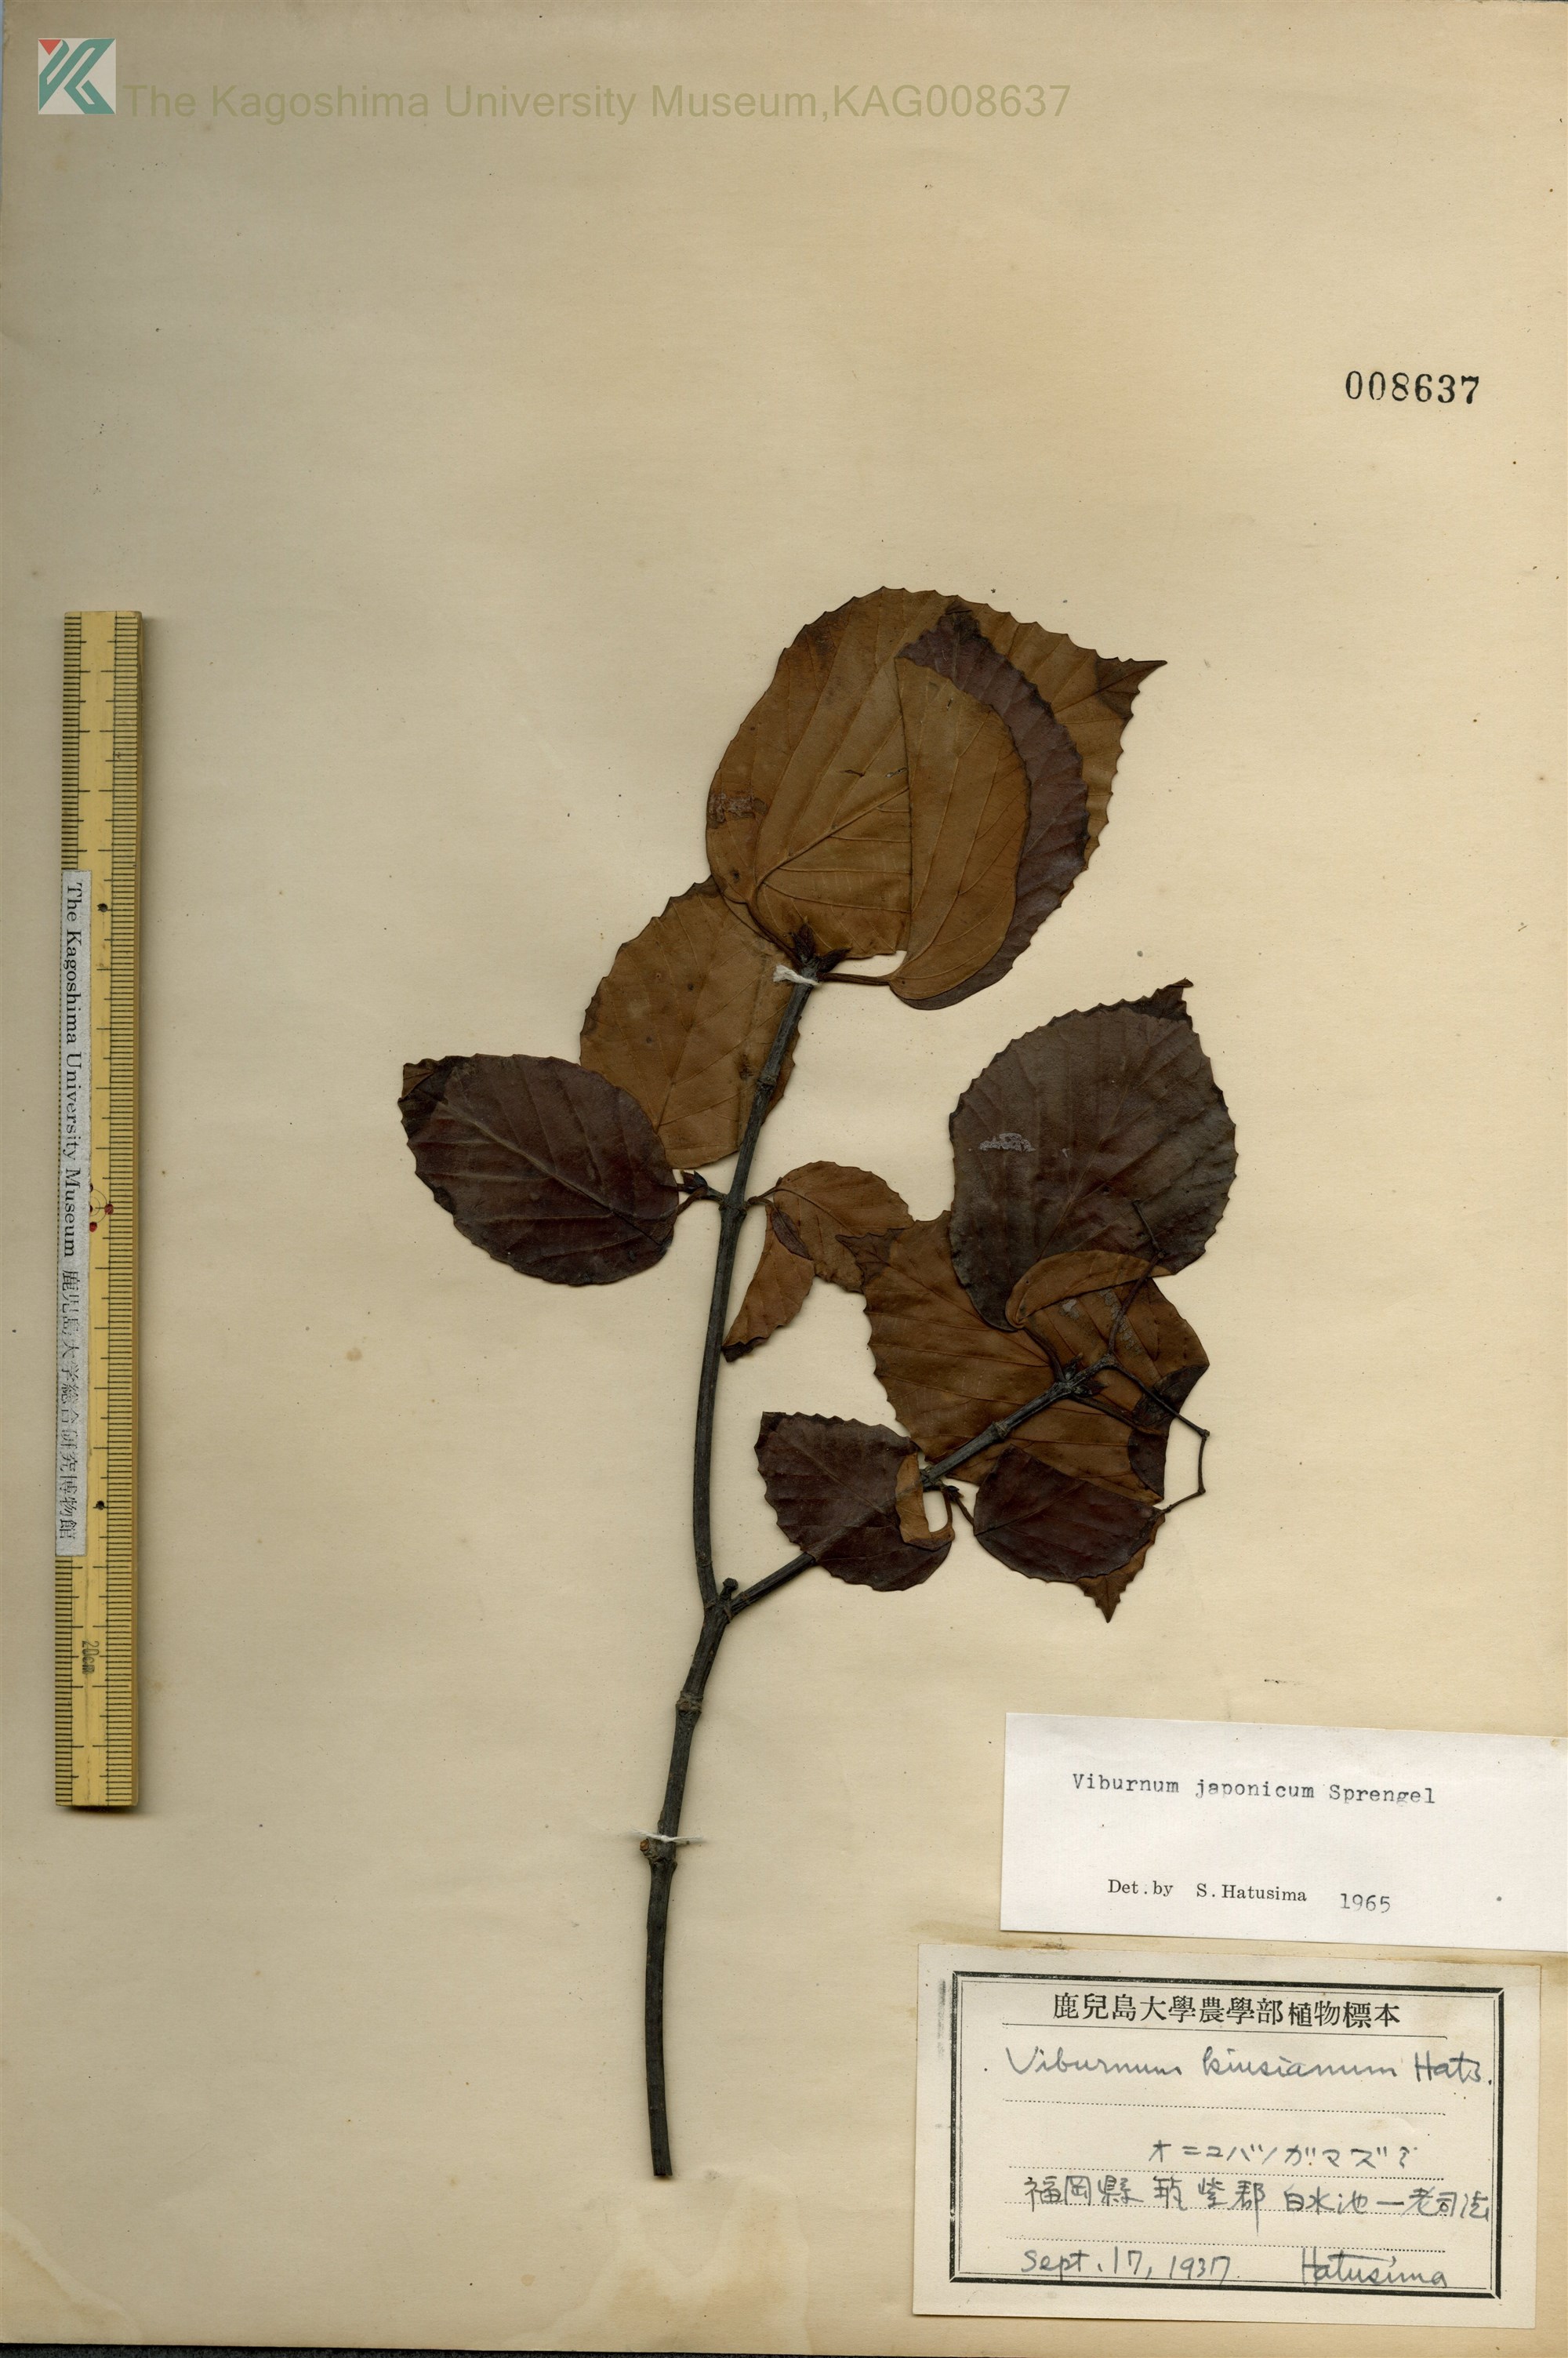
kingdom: Plantae
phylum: Tracheophyta
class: Magnoliopsida
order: Dipsacales
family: Viburnaceae
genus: Viburnum
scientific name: Viburnum japonicum
